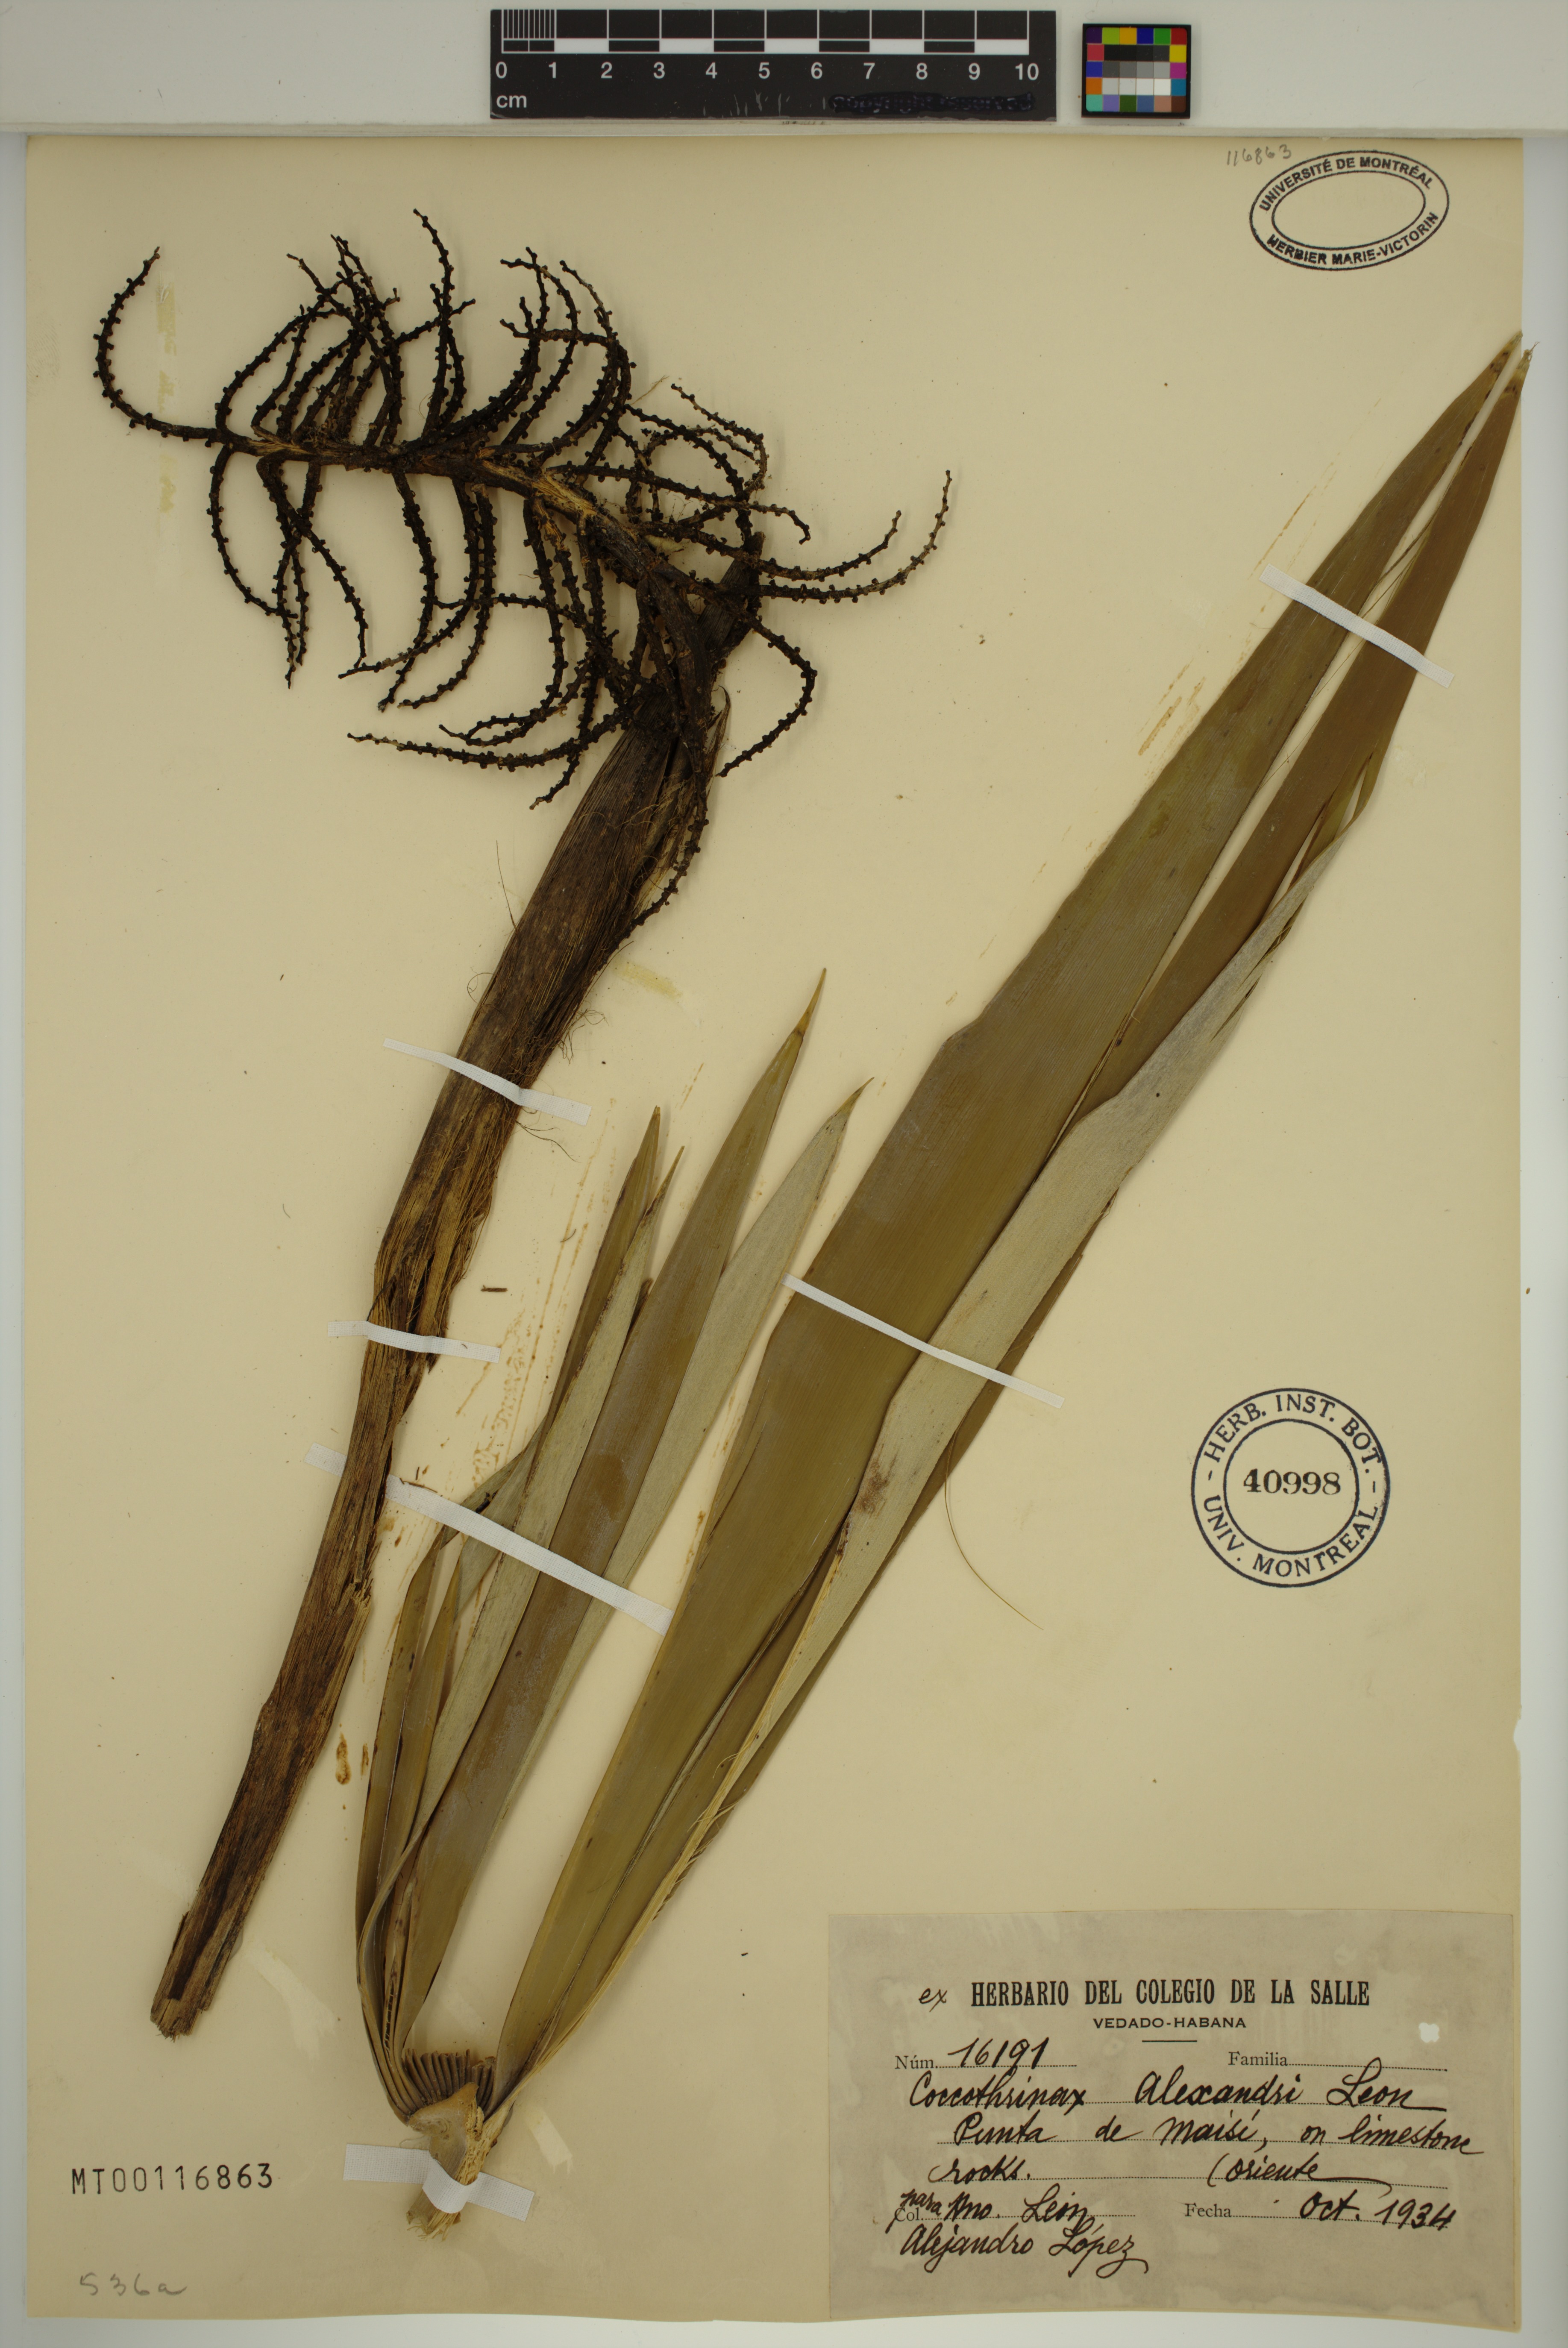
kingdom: Plantae
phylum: Tracheophyta
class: Liliopsida
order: Arecales
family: Arecaceae
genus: Coccothrinax
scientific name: Coccothrinax alexandri
